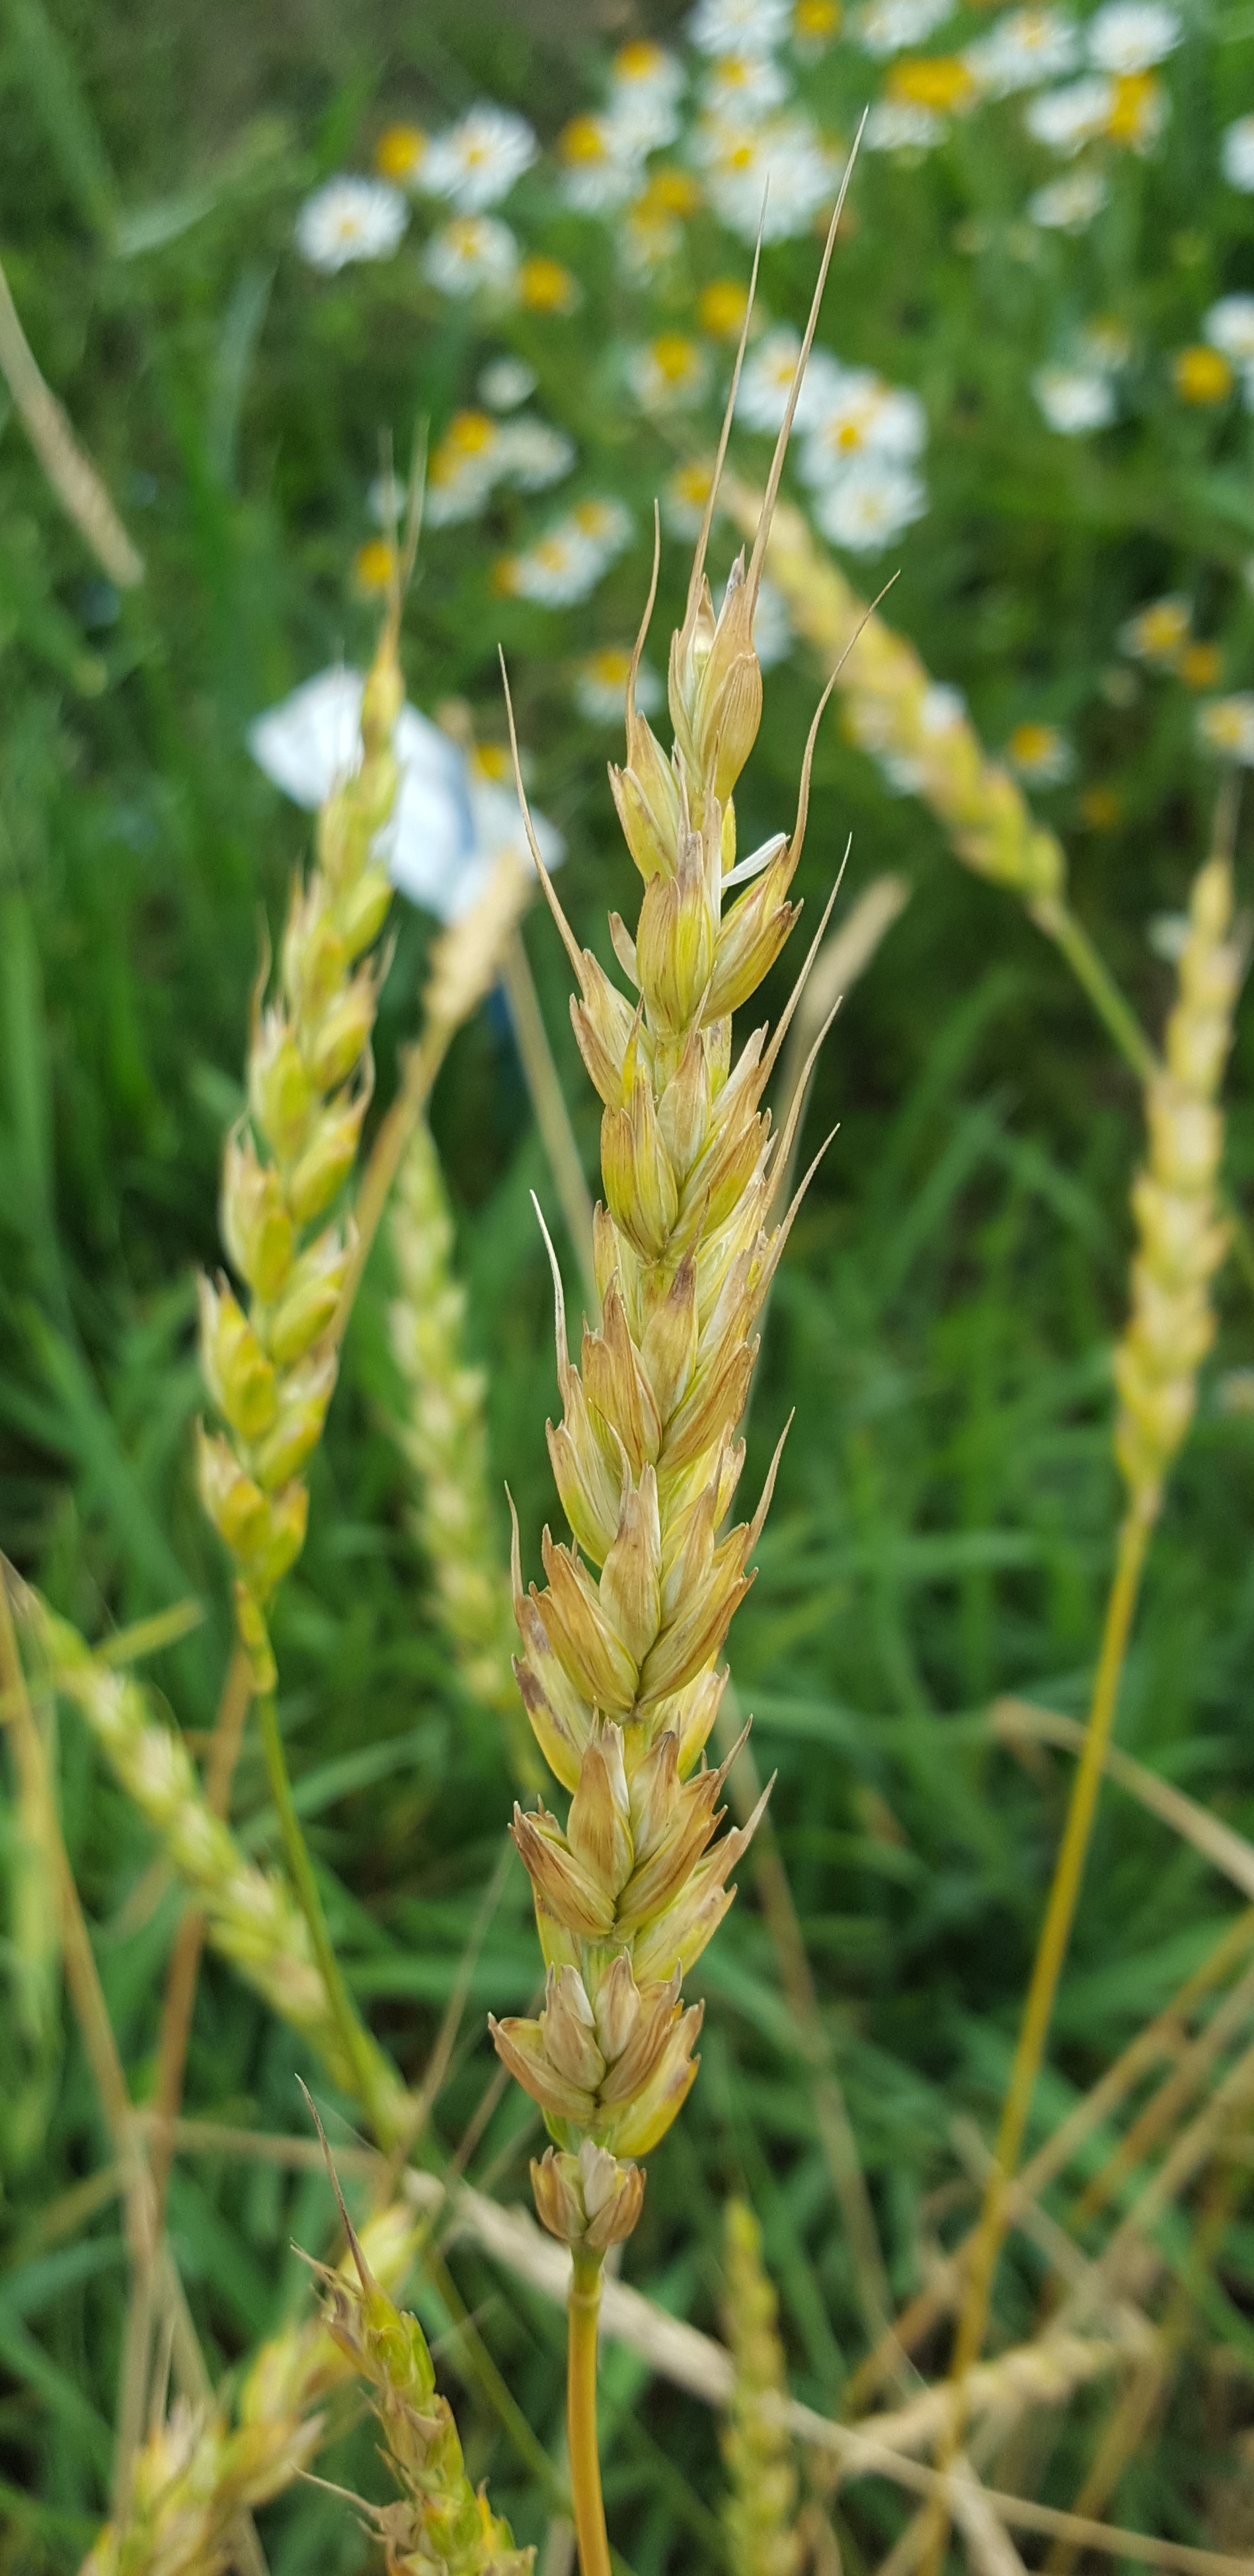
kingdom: Plantae
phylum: Tracheophyta
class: Liliopsida
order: Poales
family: Poaceae
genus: Triticum
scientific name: Triticum aestivum
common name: Common wheat
